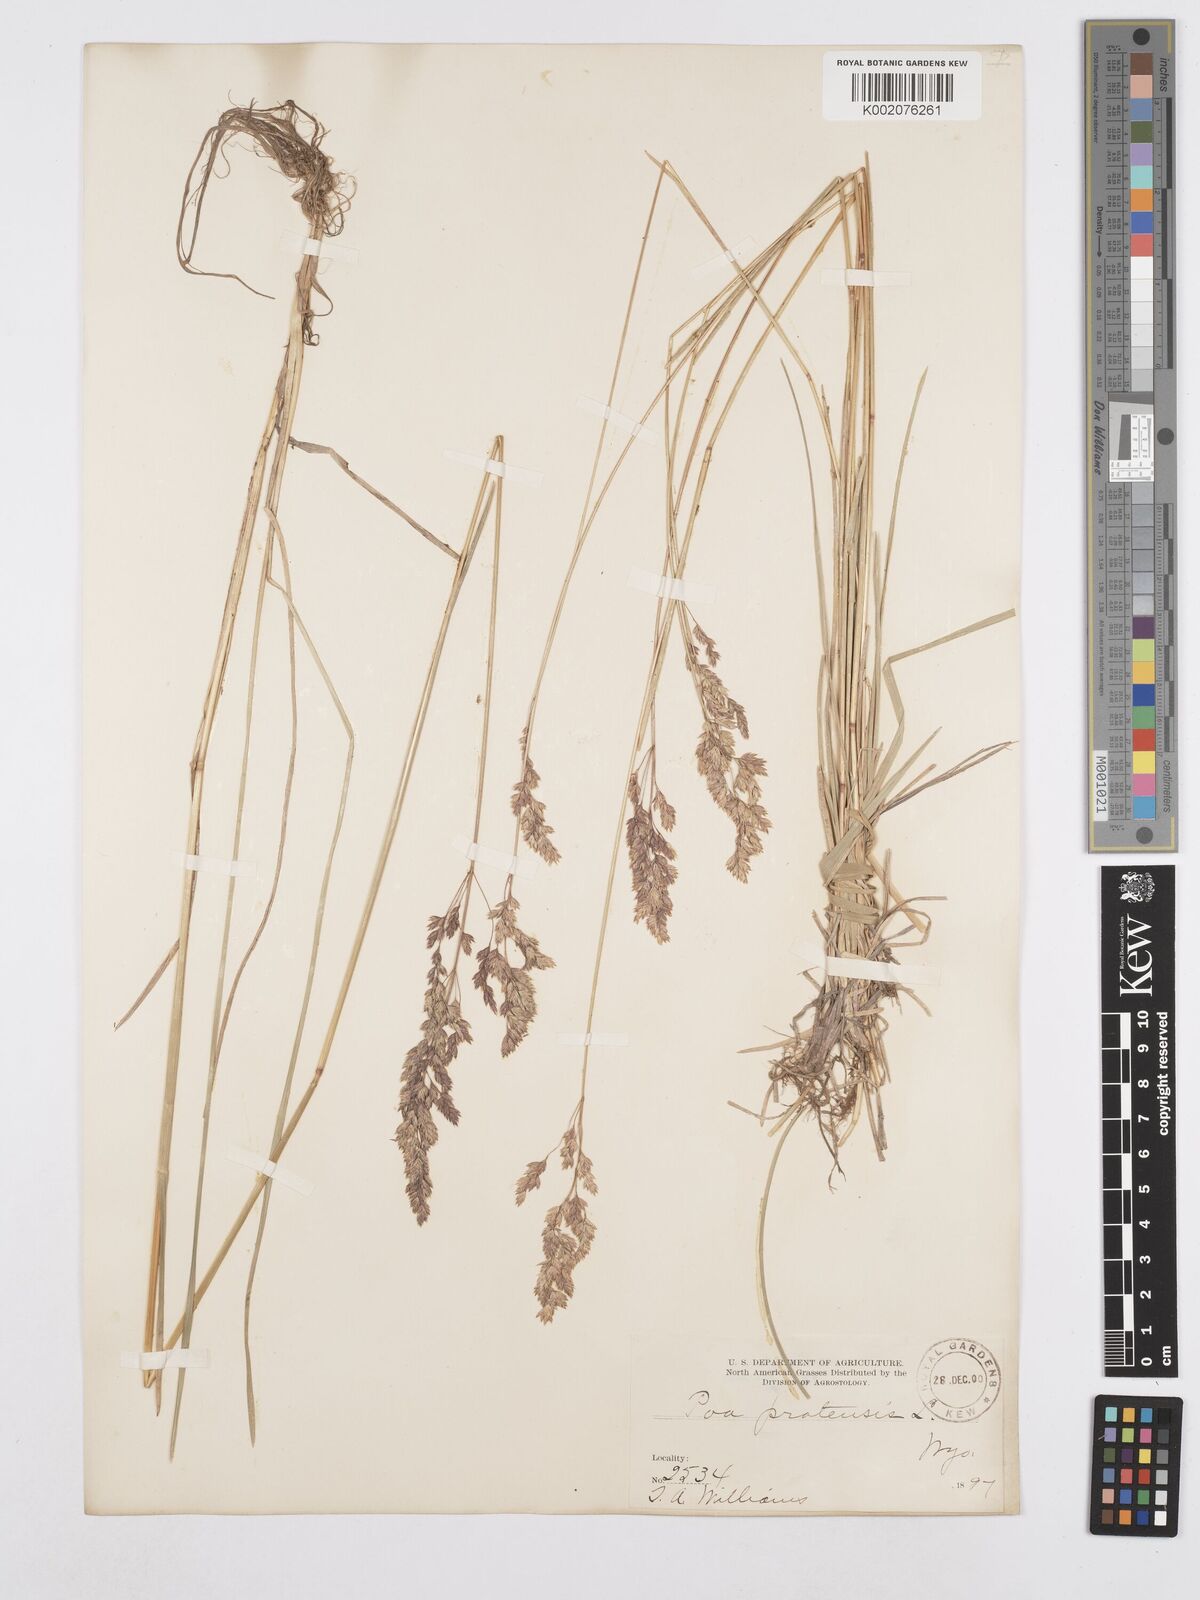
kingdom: Plantae
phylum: Tracheophyta
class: Liliopsida
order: Poales
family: Poaceae
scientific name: Poaceae
